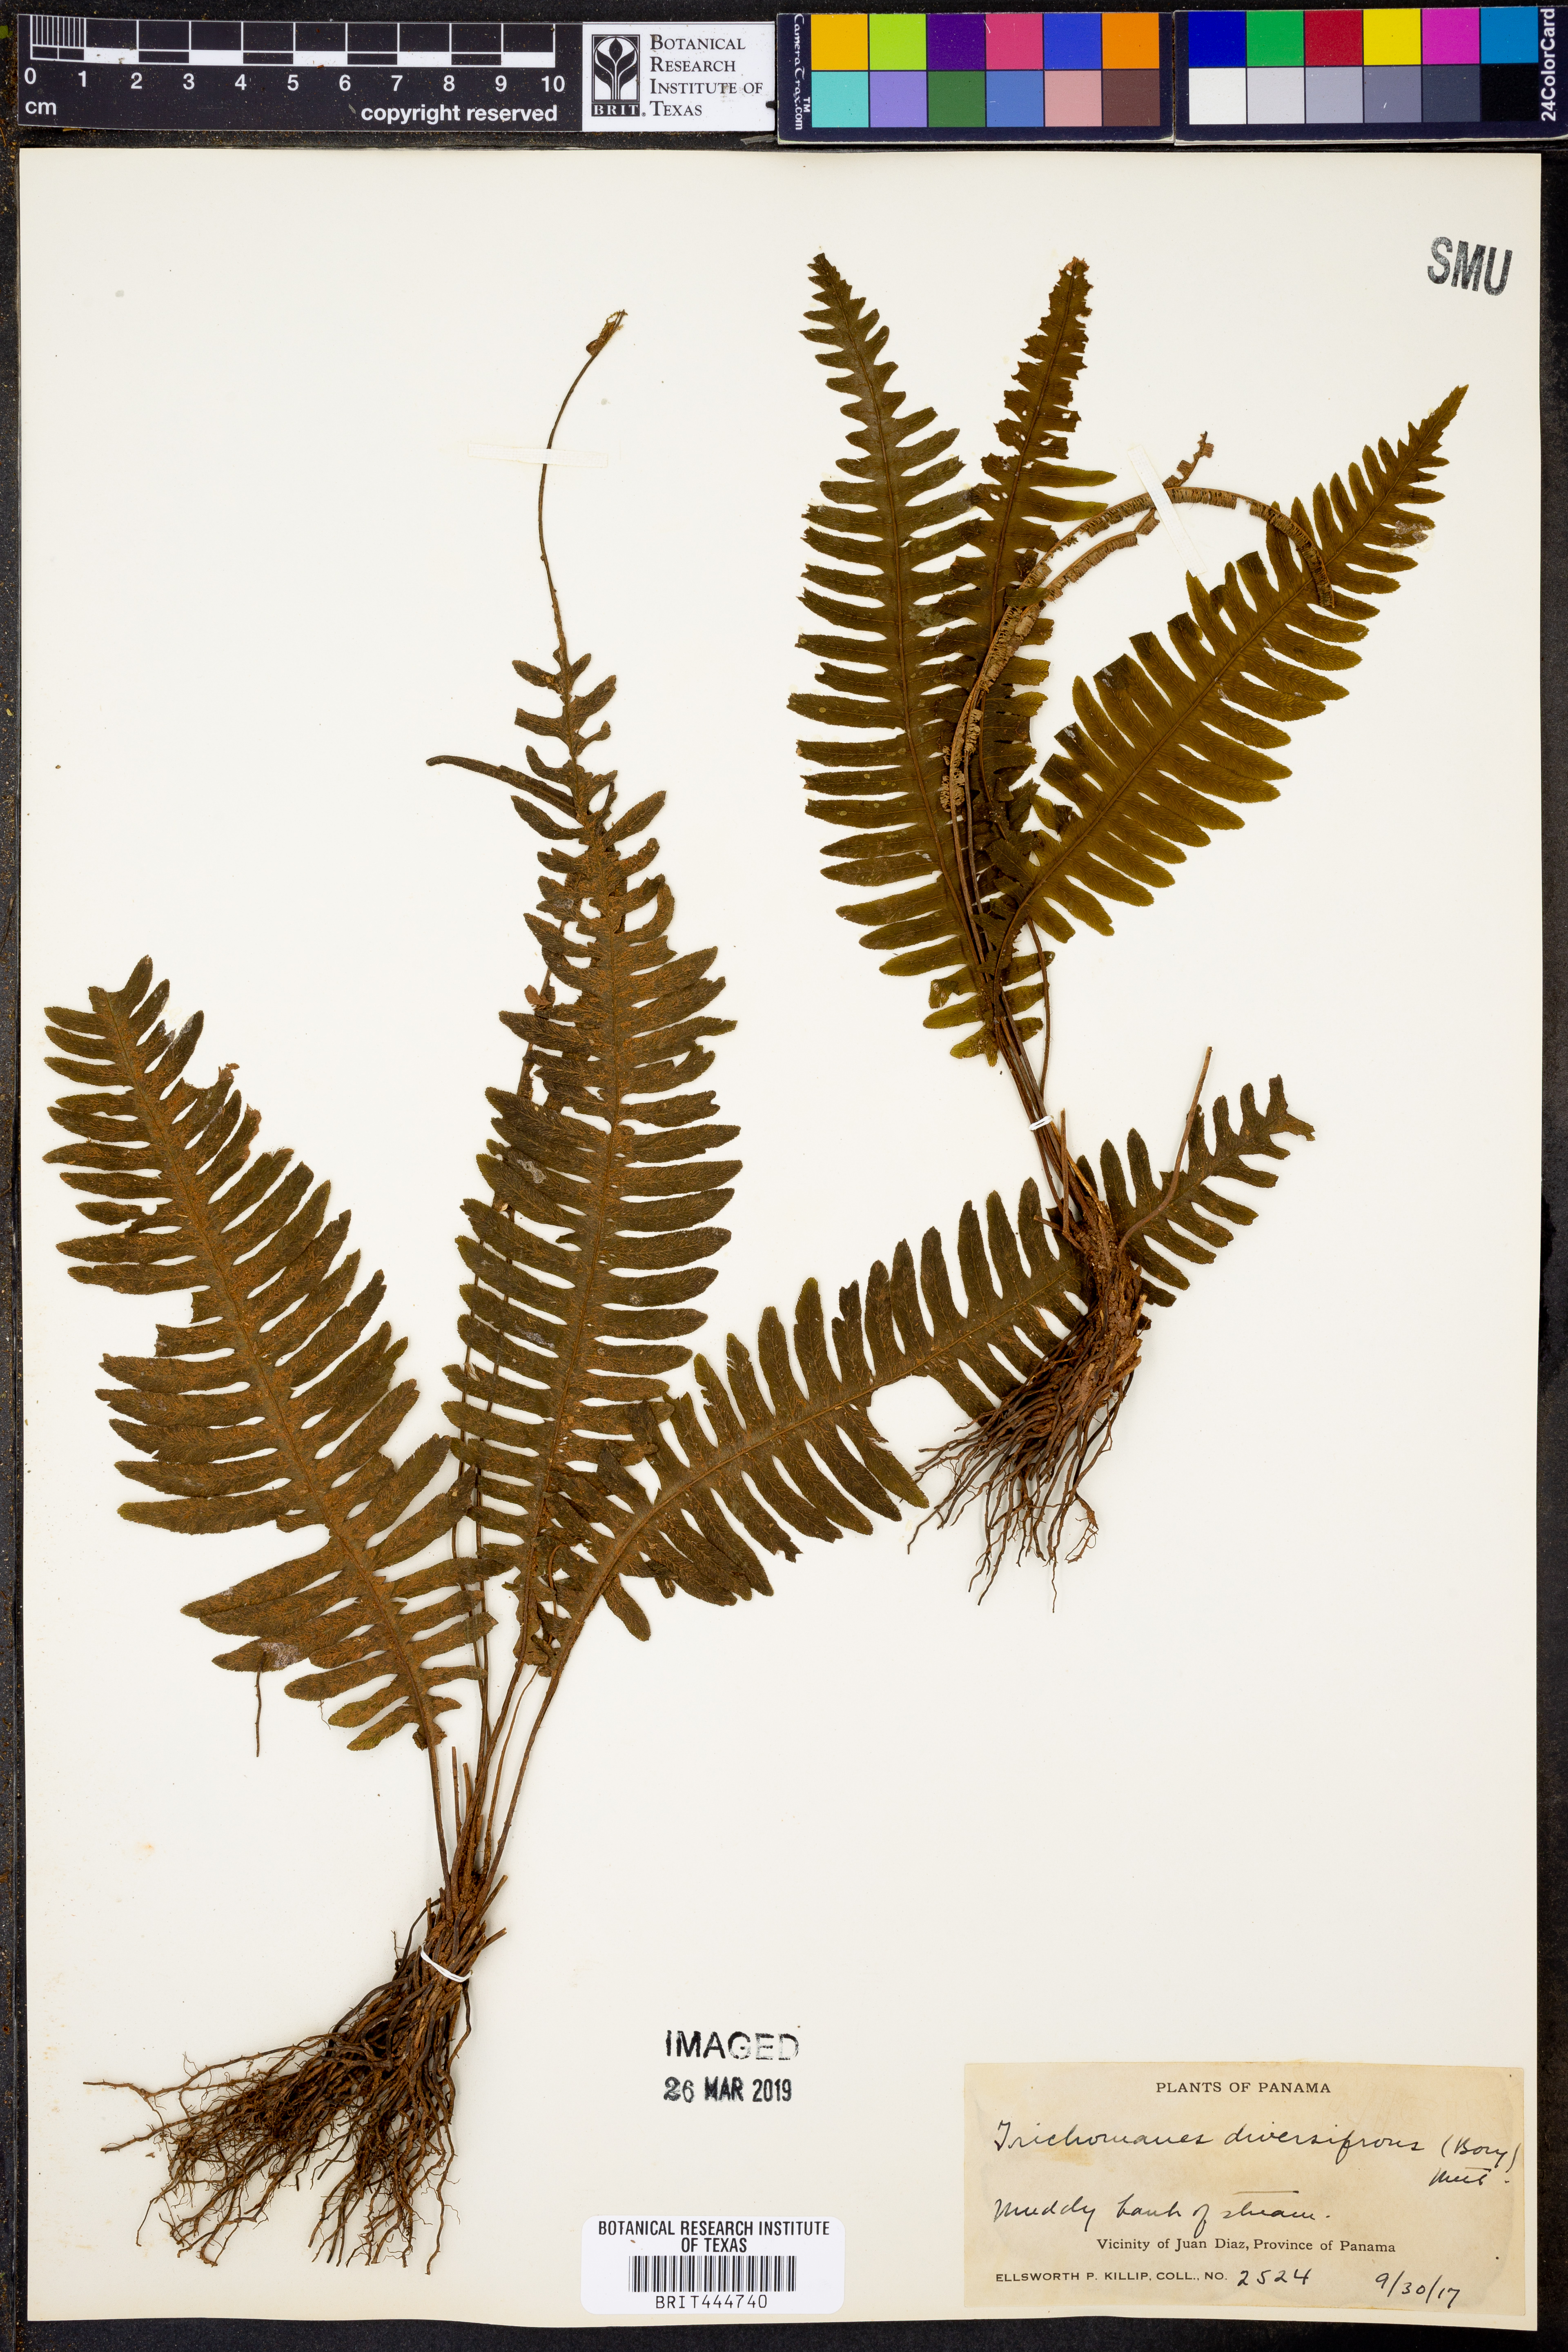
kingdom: Plantae
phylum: Tracheophyta
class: Polypodiopsida
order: Hymenophyllales
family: Hymenophyllaceae
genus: Trichomanes
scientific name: Trichomanes diversifrons
